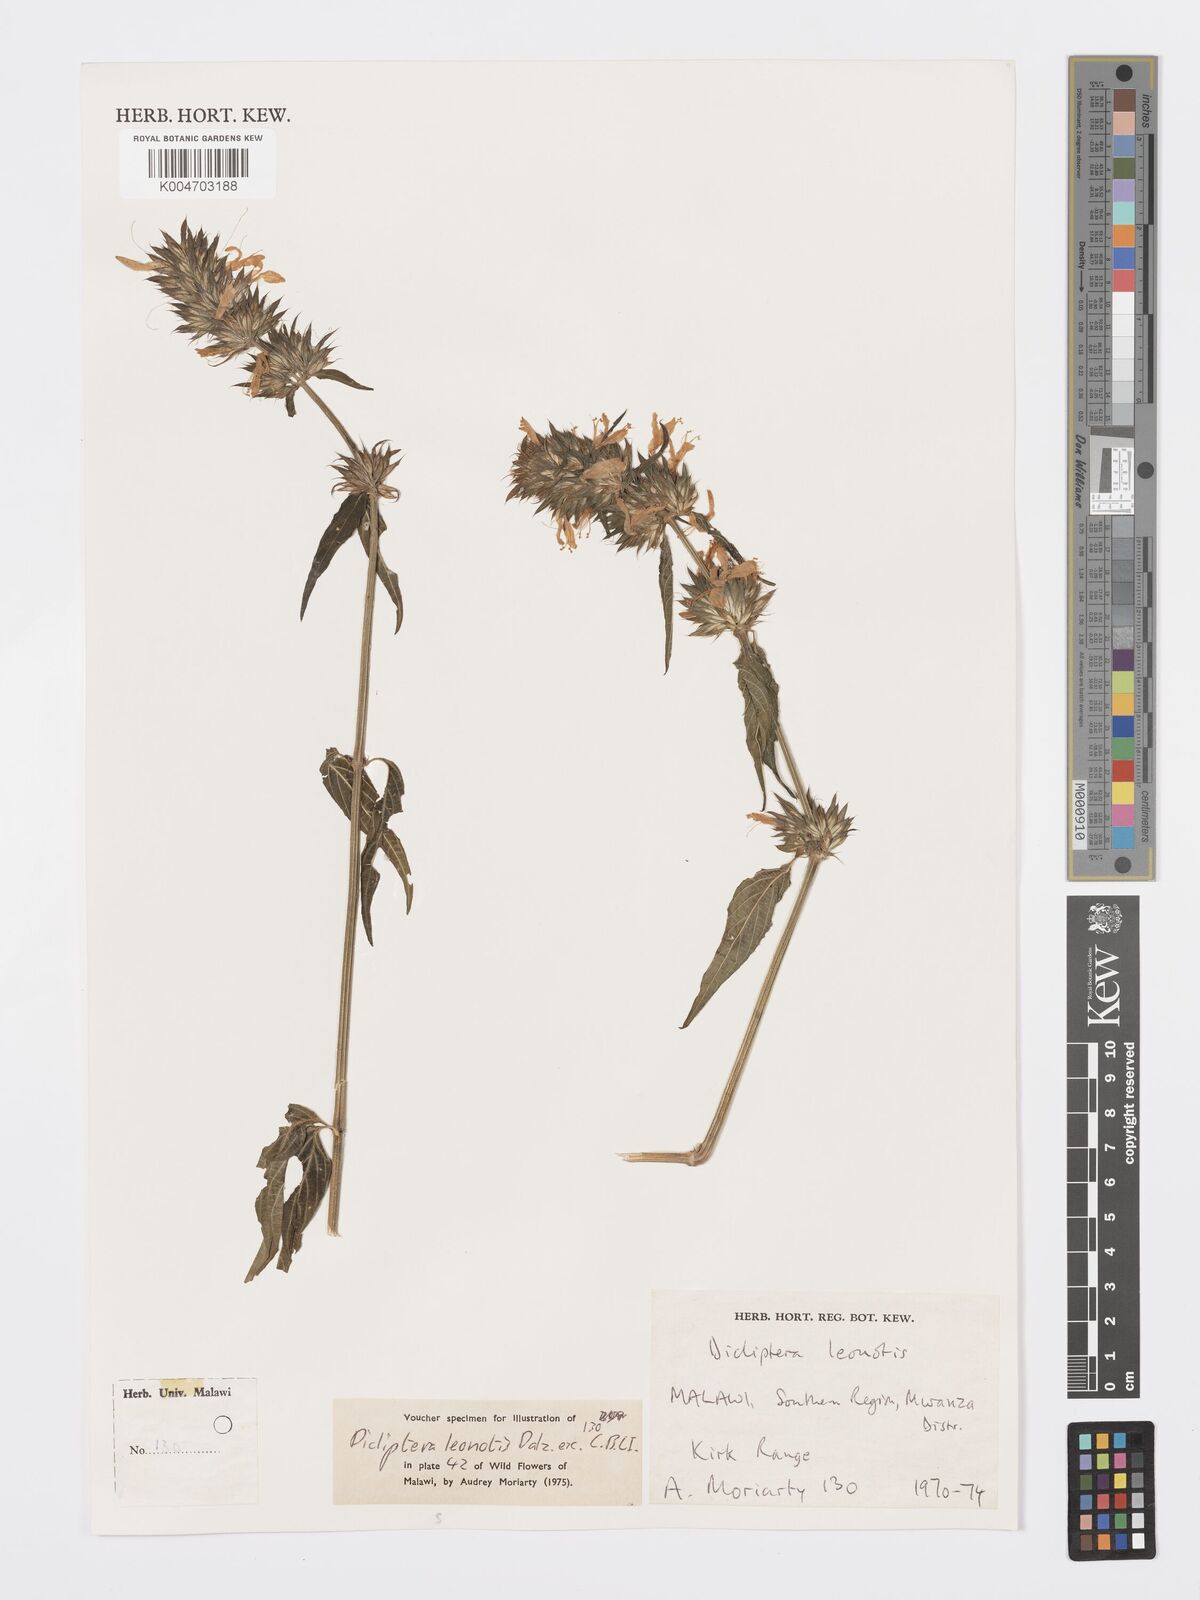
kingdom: Plantae
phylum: Tracheophyta
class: Magnoliopsida
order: Lamiales
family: Acanthaceae
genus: Dicliptera
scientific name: Dicliptera clinopodia
